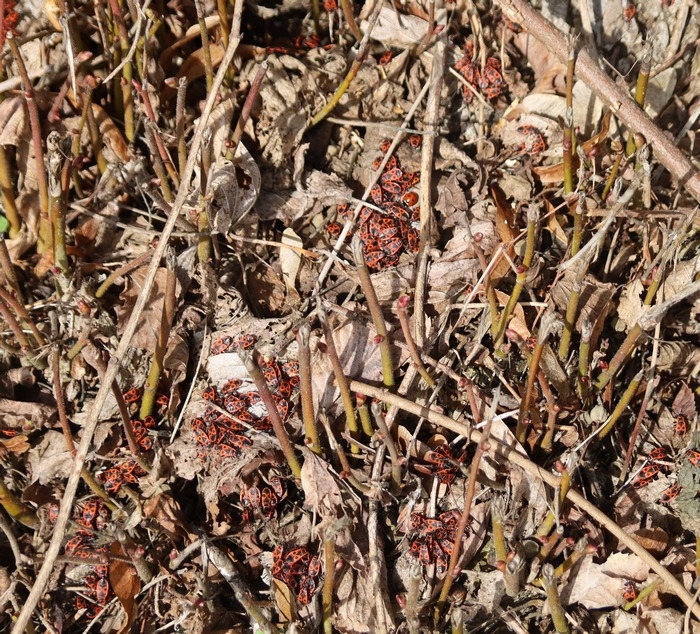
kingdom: Animalia
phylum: Arthropoda
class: Insecta
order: Hemiptera
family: Pyrrhocoridae
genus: Pyrrhocoris
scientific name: Pyrrhocoris apterus
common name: Ildtæge
